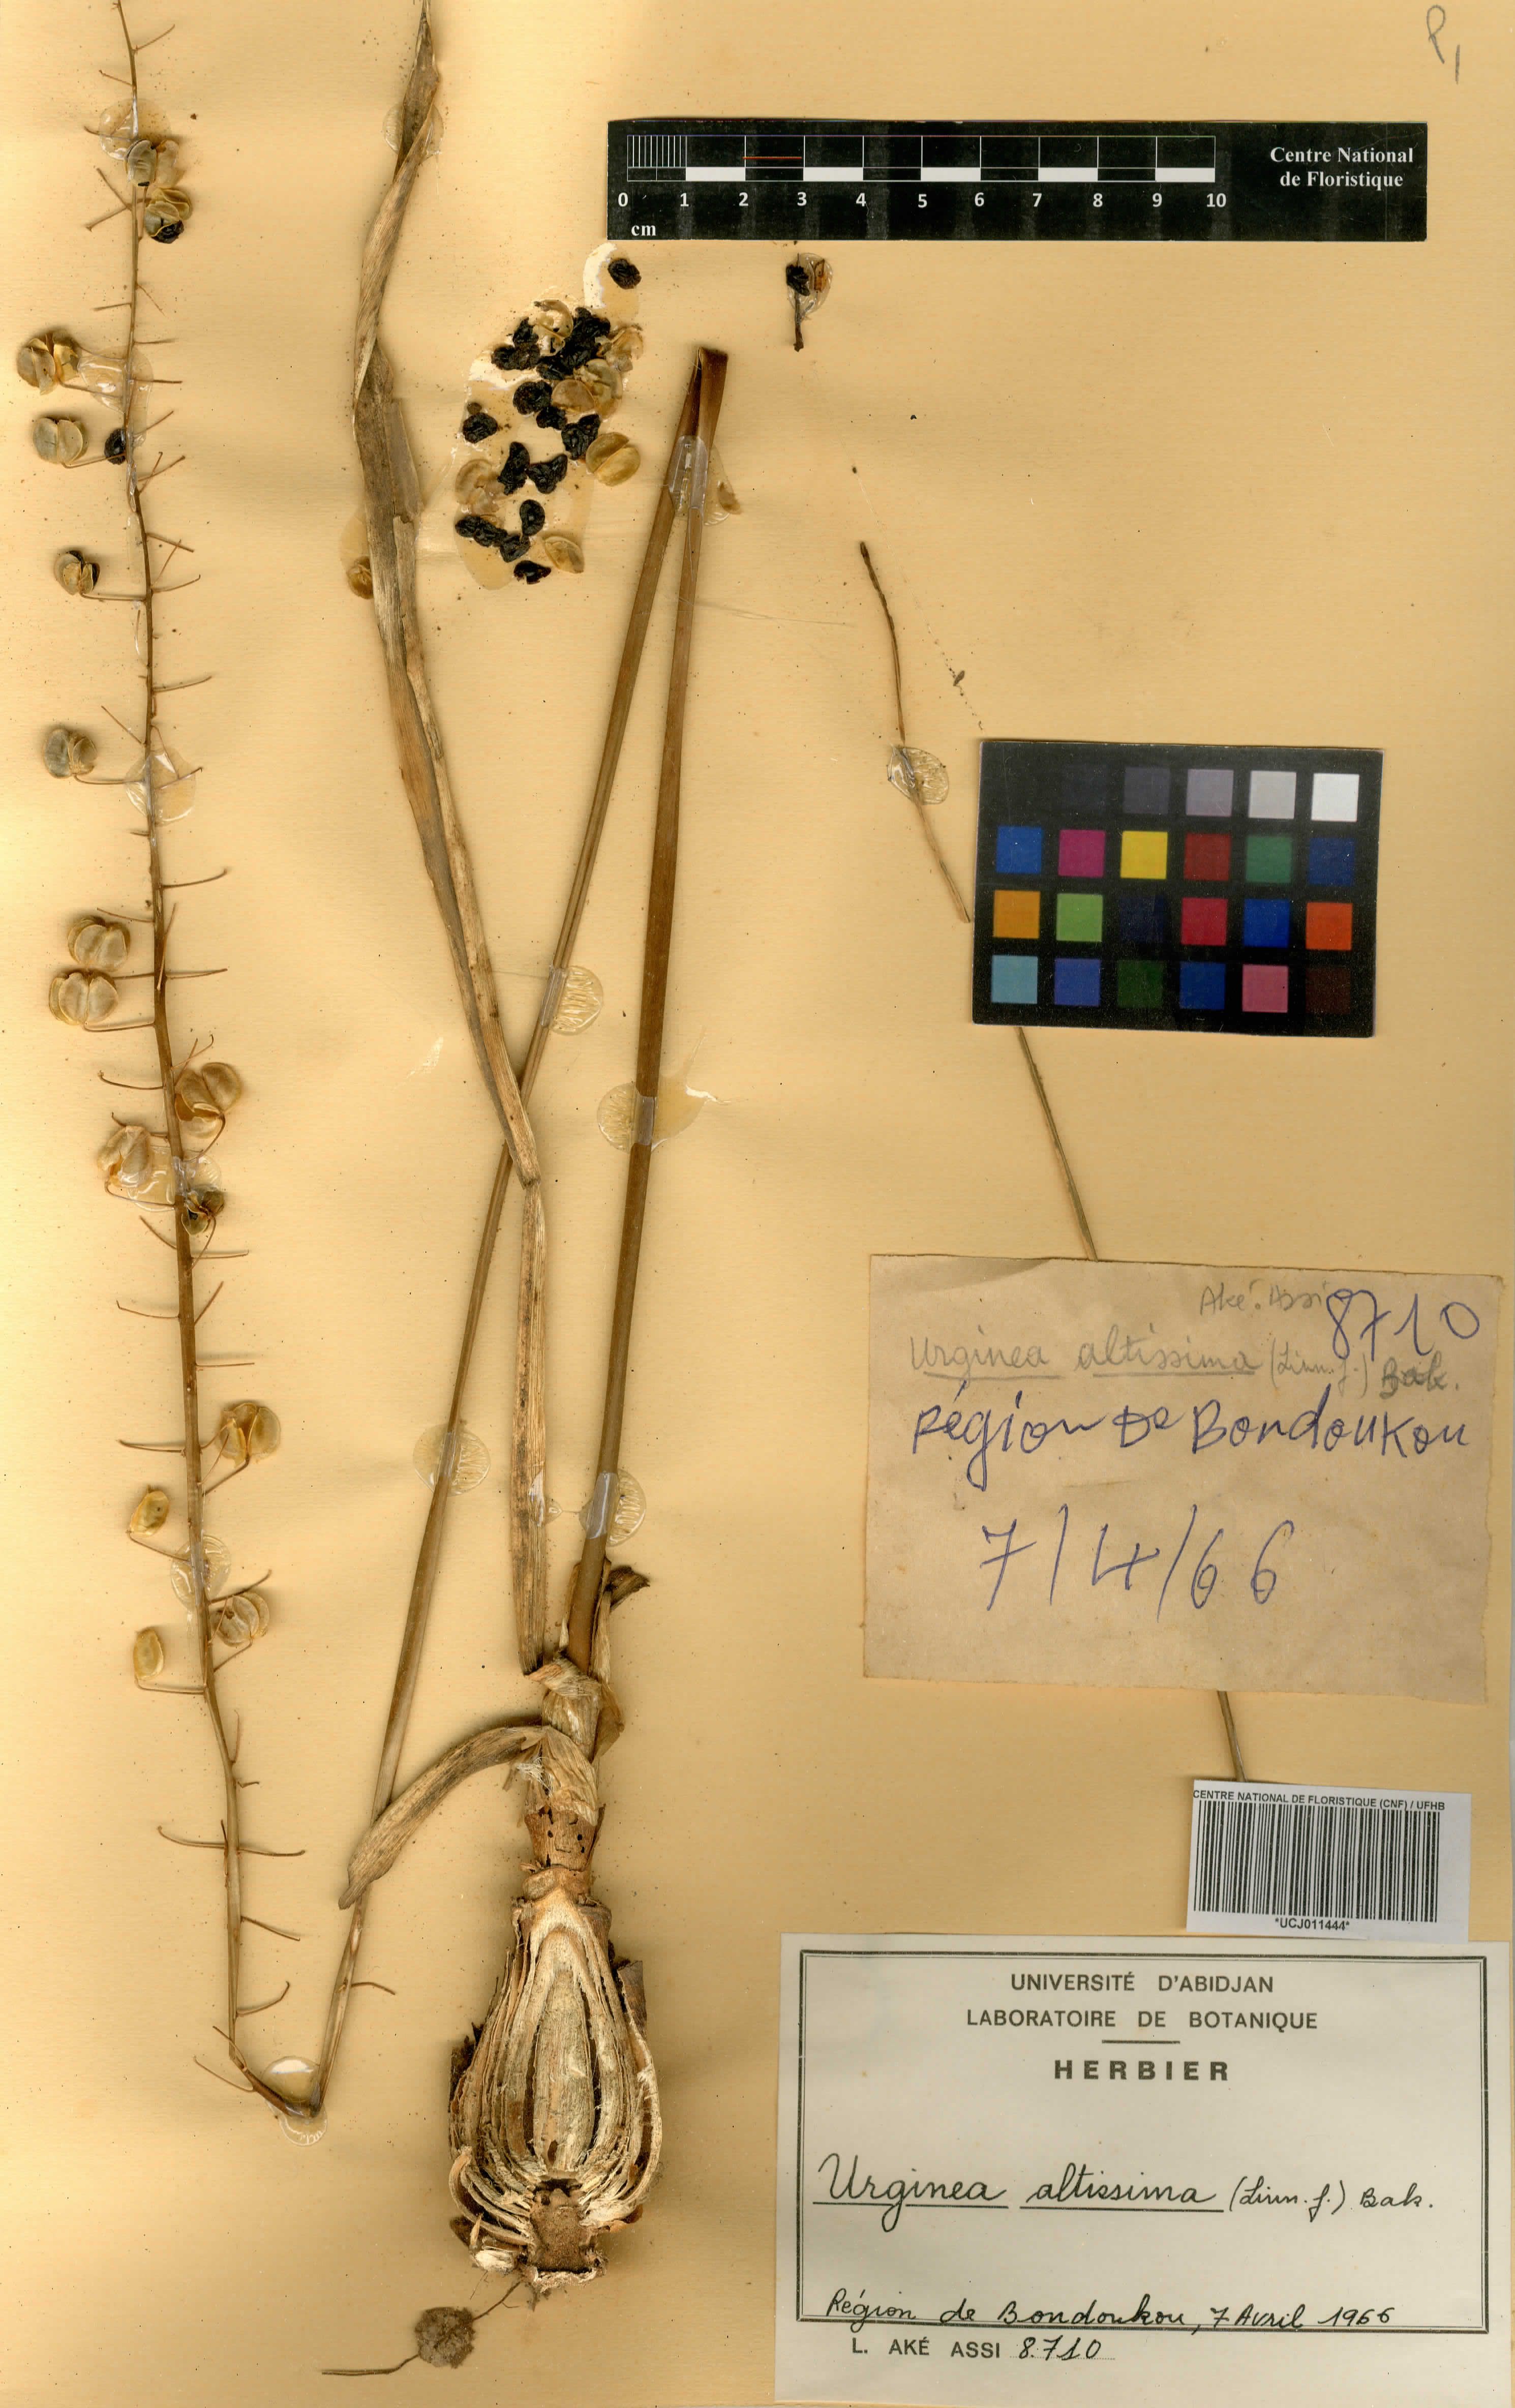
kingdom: Plantae
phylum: Tracheophyta
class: Liliopsida
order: Asparagales
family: Asparagaceae
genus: Drimia
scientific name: Drimia altissima
